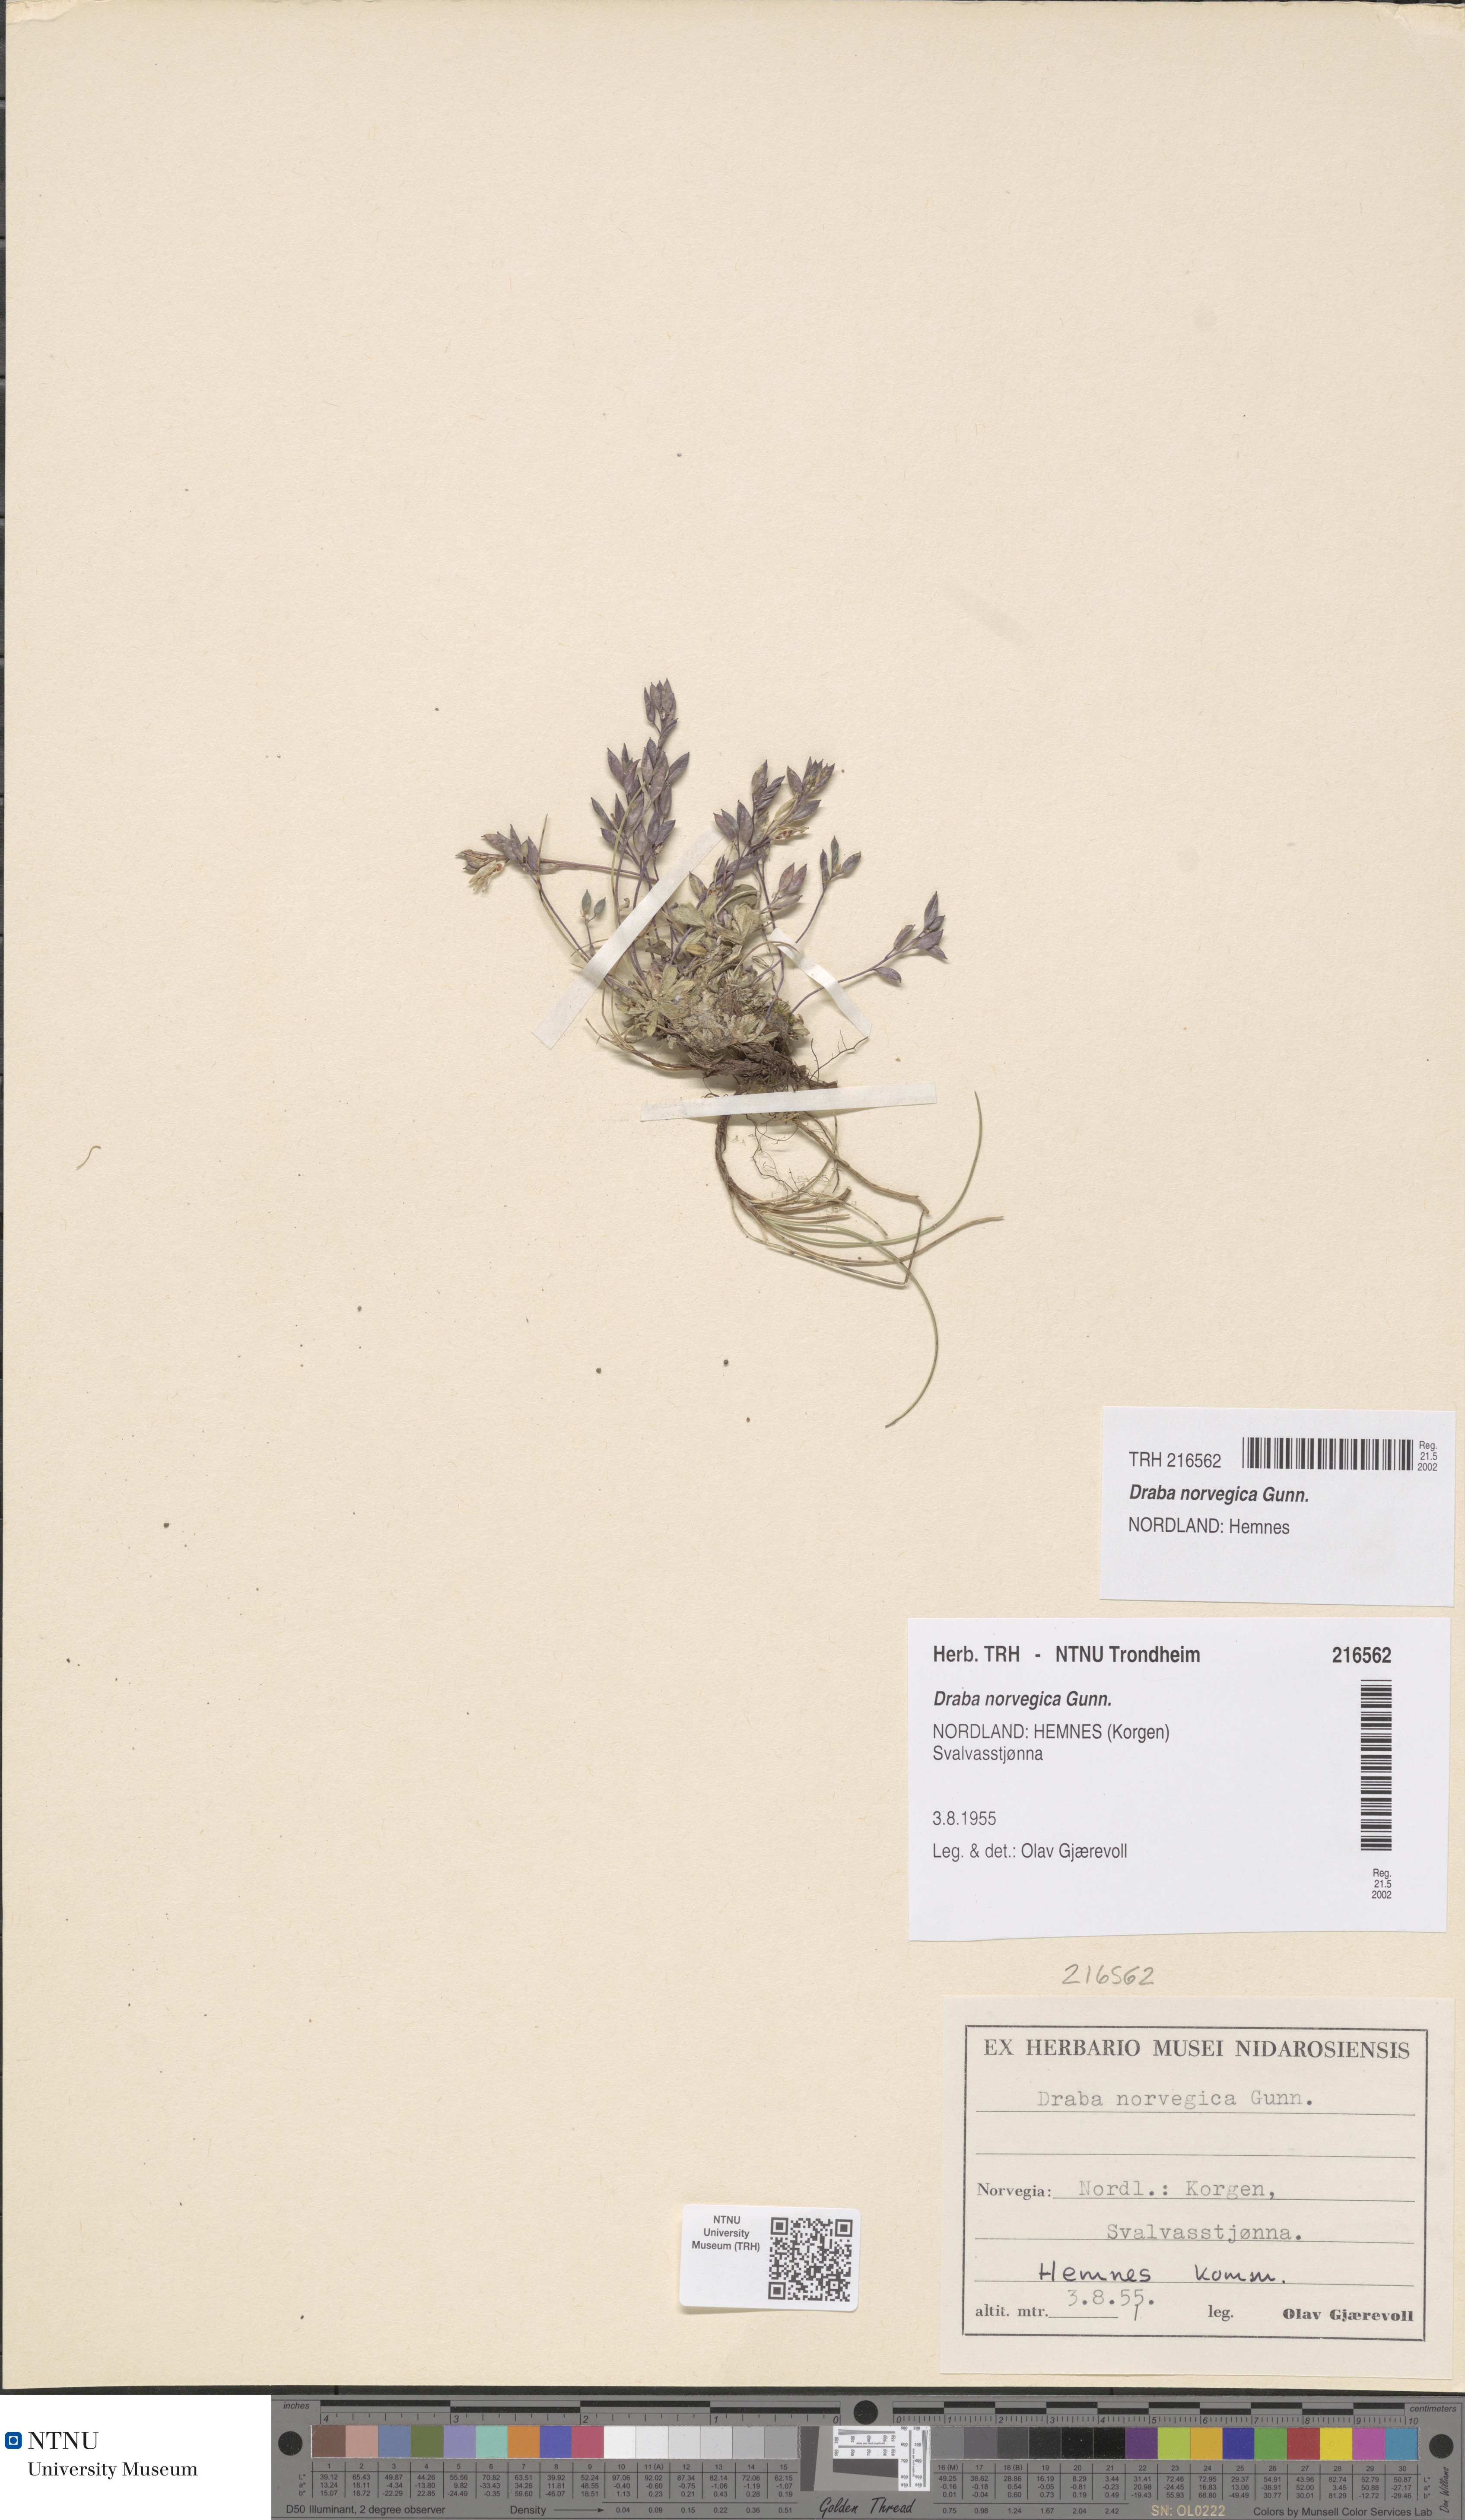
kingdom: Plantae
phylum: Tracheophyta
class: Magnoliopsida
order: Brassicales
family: Brassicaceae
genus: Draba
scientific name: Draba norvegica
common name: Rock whitlowgrass
